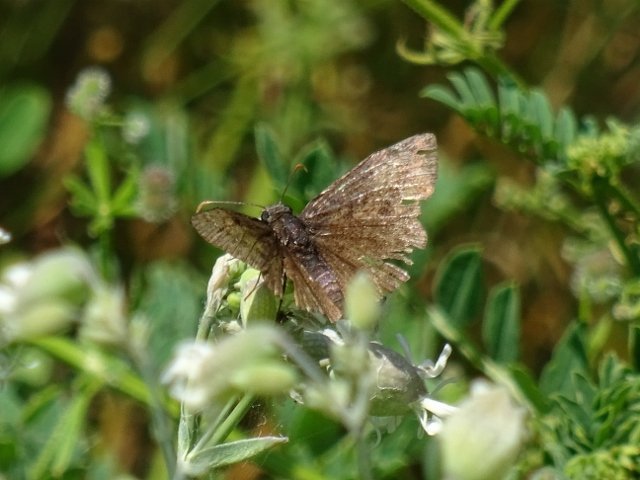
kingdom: Animalia
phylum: Arthropoda
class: Insecta
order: Lepidoptera
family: Hesperiidae
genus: Erynnis
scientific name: Erynnis
